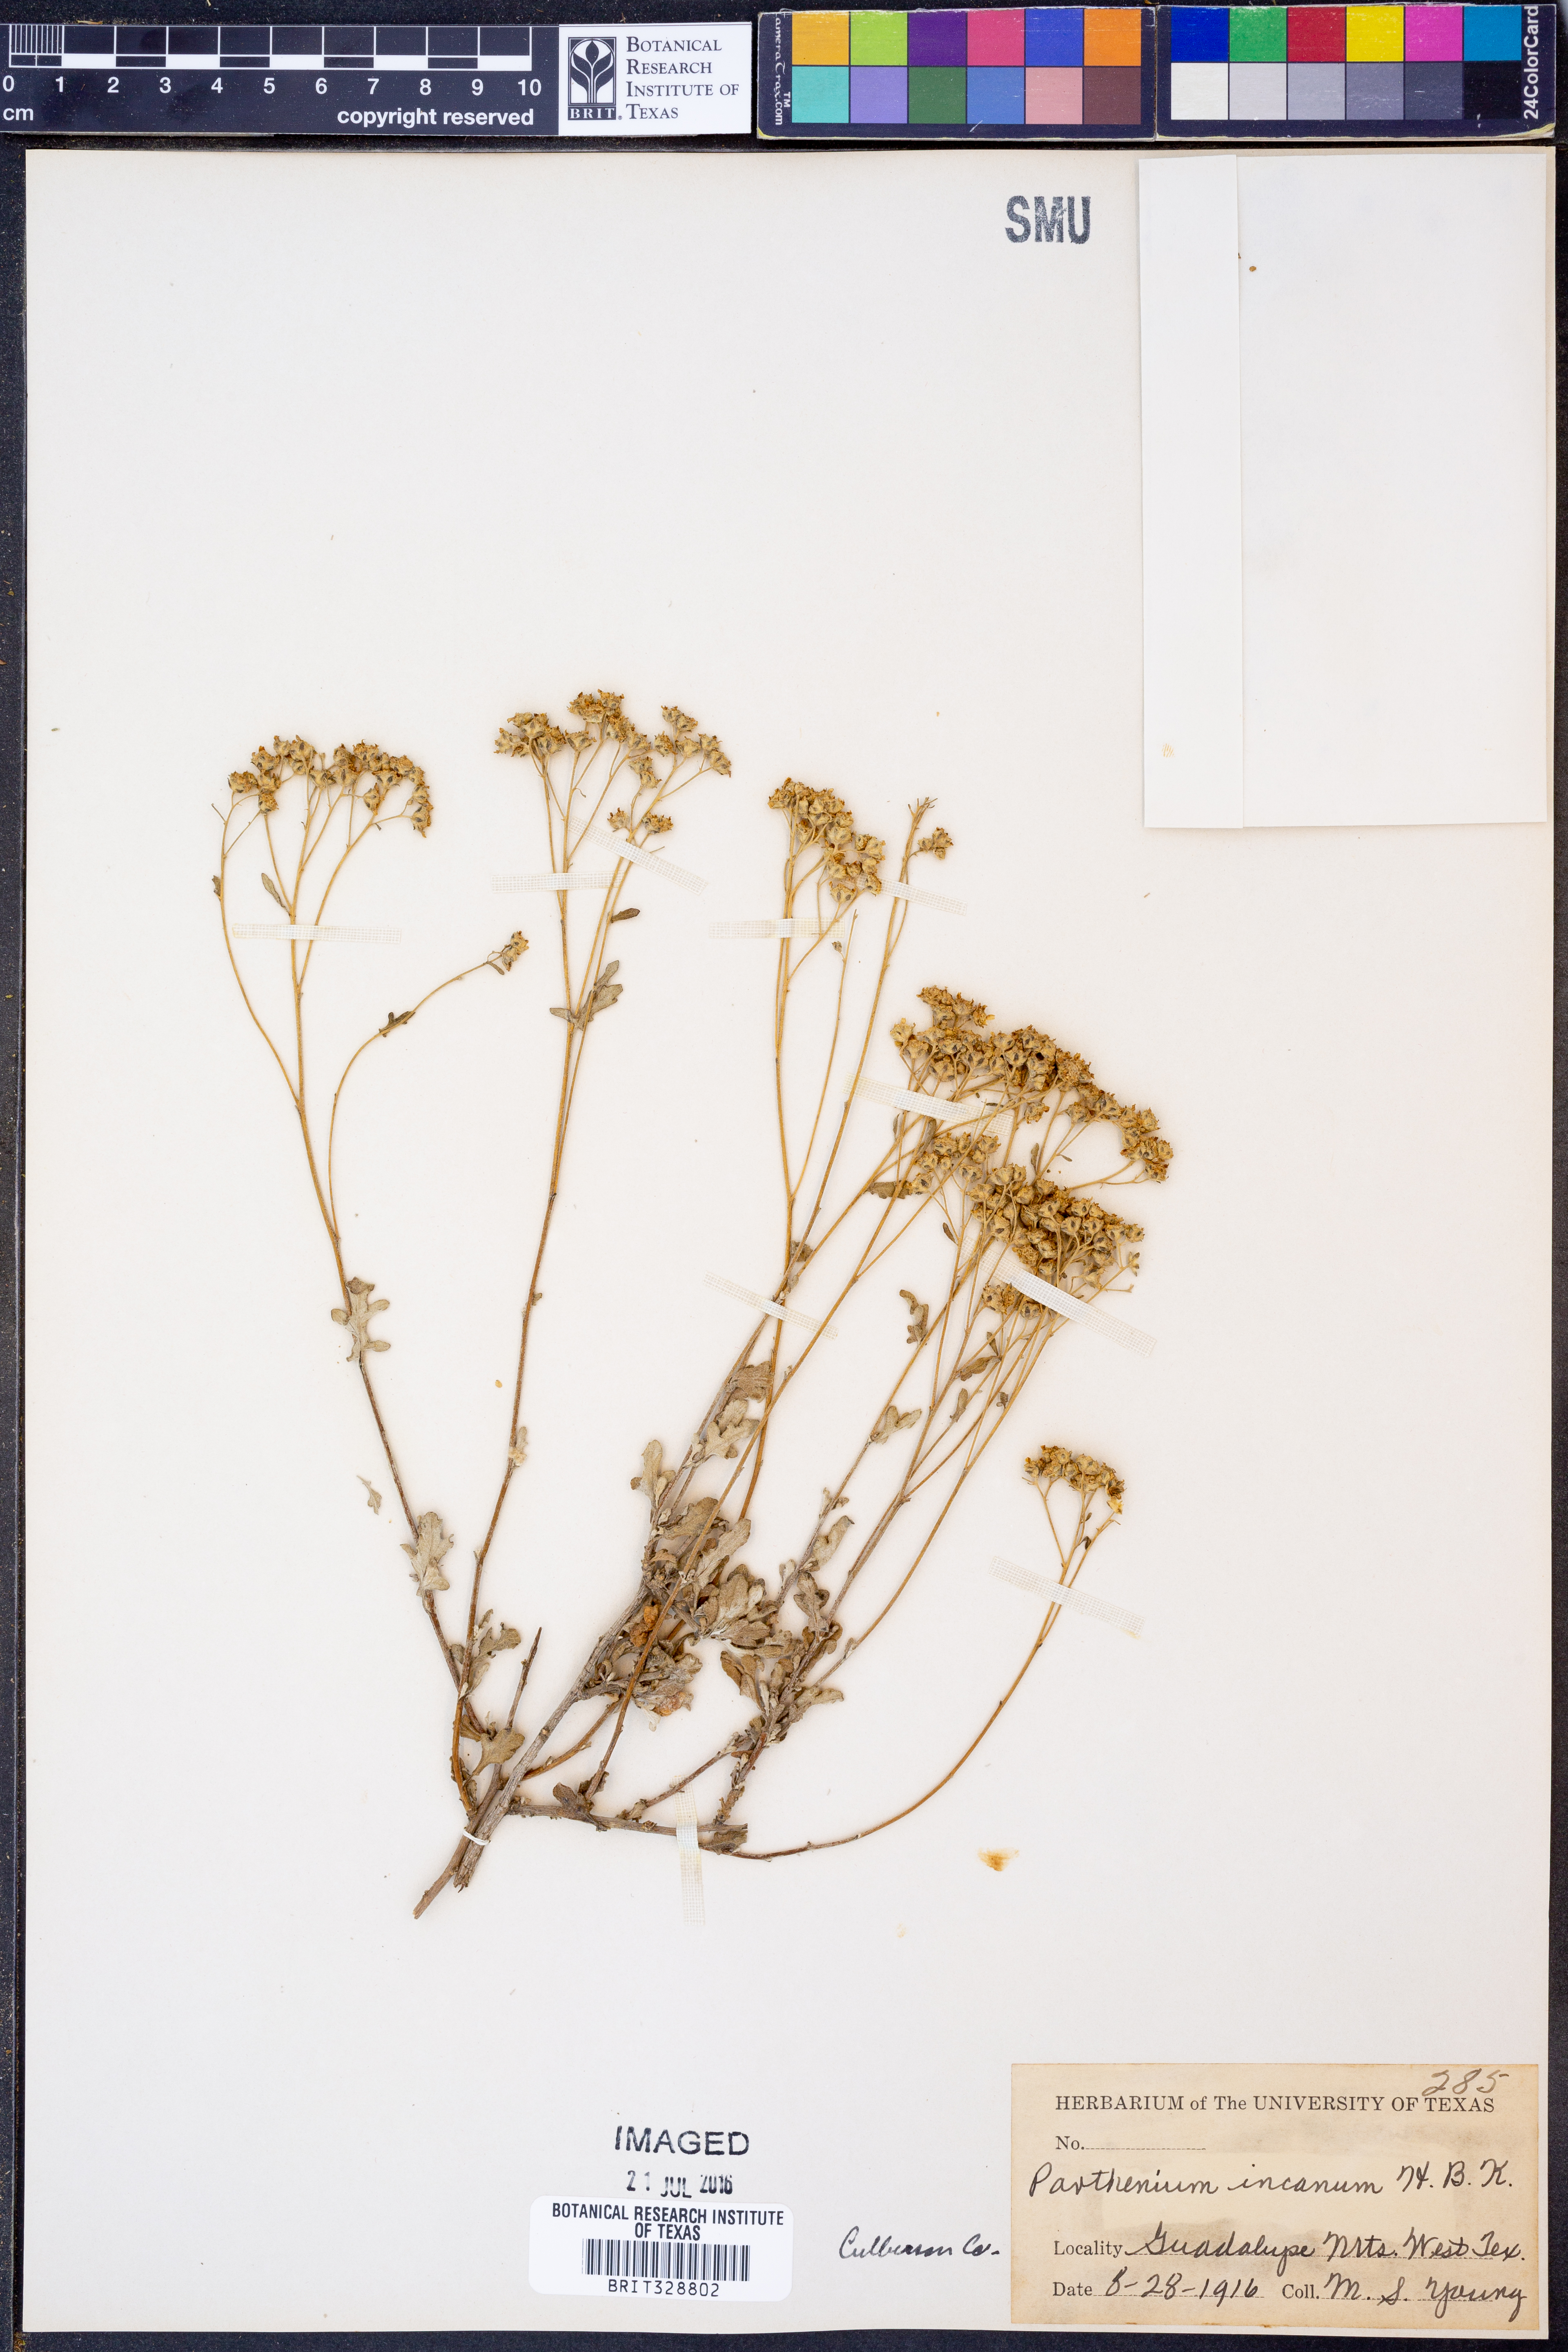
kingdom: Plantae
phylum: Tracheophyta
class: Magnoliopsida
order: Asterales
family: Asteraceae
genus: Parthenium
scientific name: Parthenium incanum
